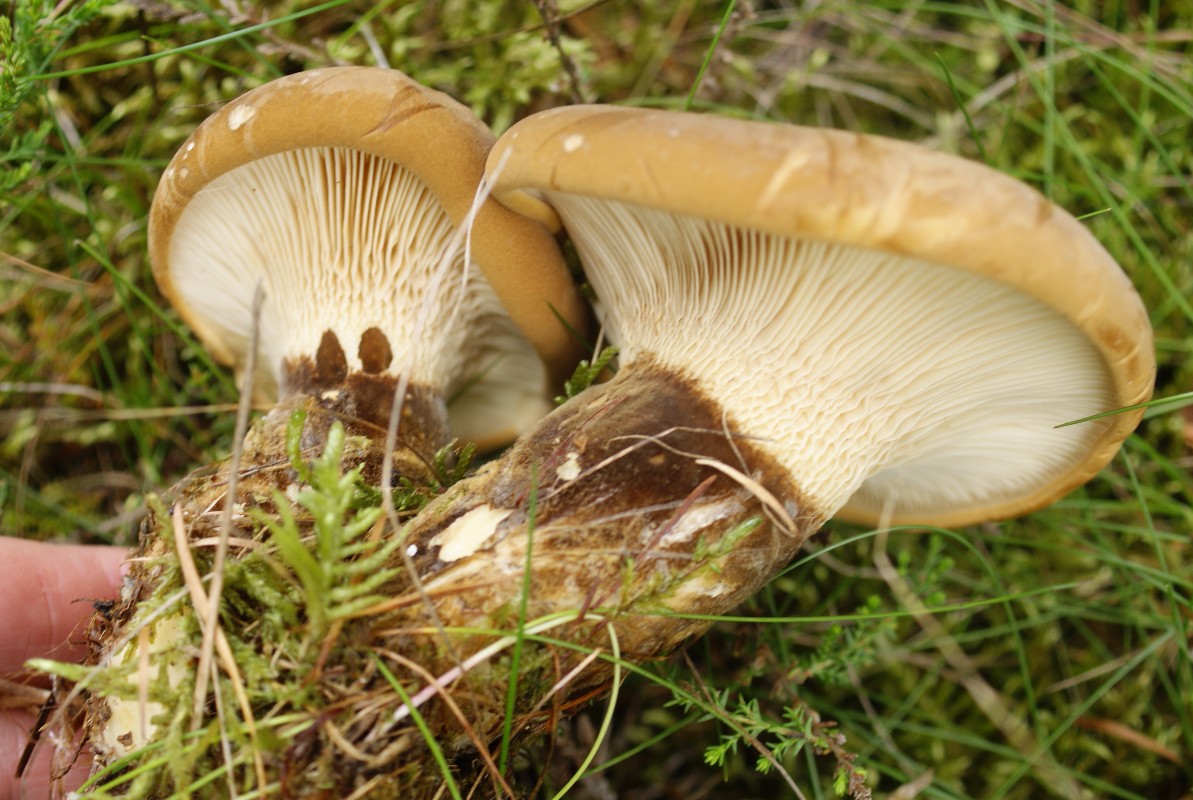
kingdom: Fungi
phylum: Basidiomycota
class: Agaricomycetes
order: Boletales
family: Tapinellaceae
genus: Tapinella
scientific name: Tapinella atrotomentosa
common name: sortfiltet viftesvamp
